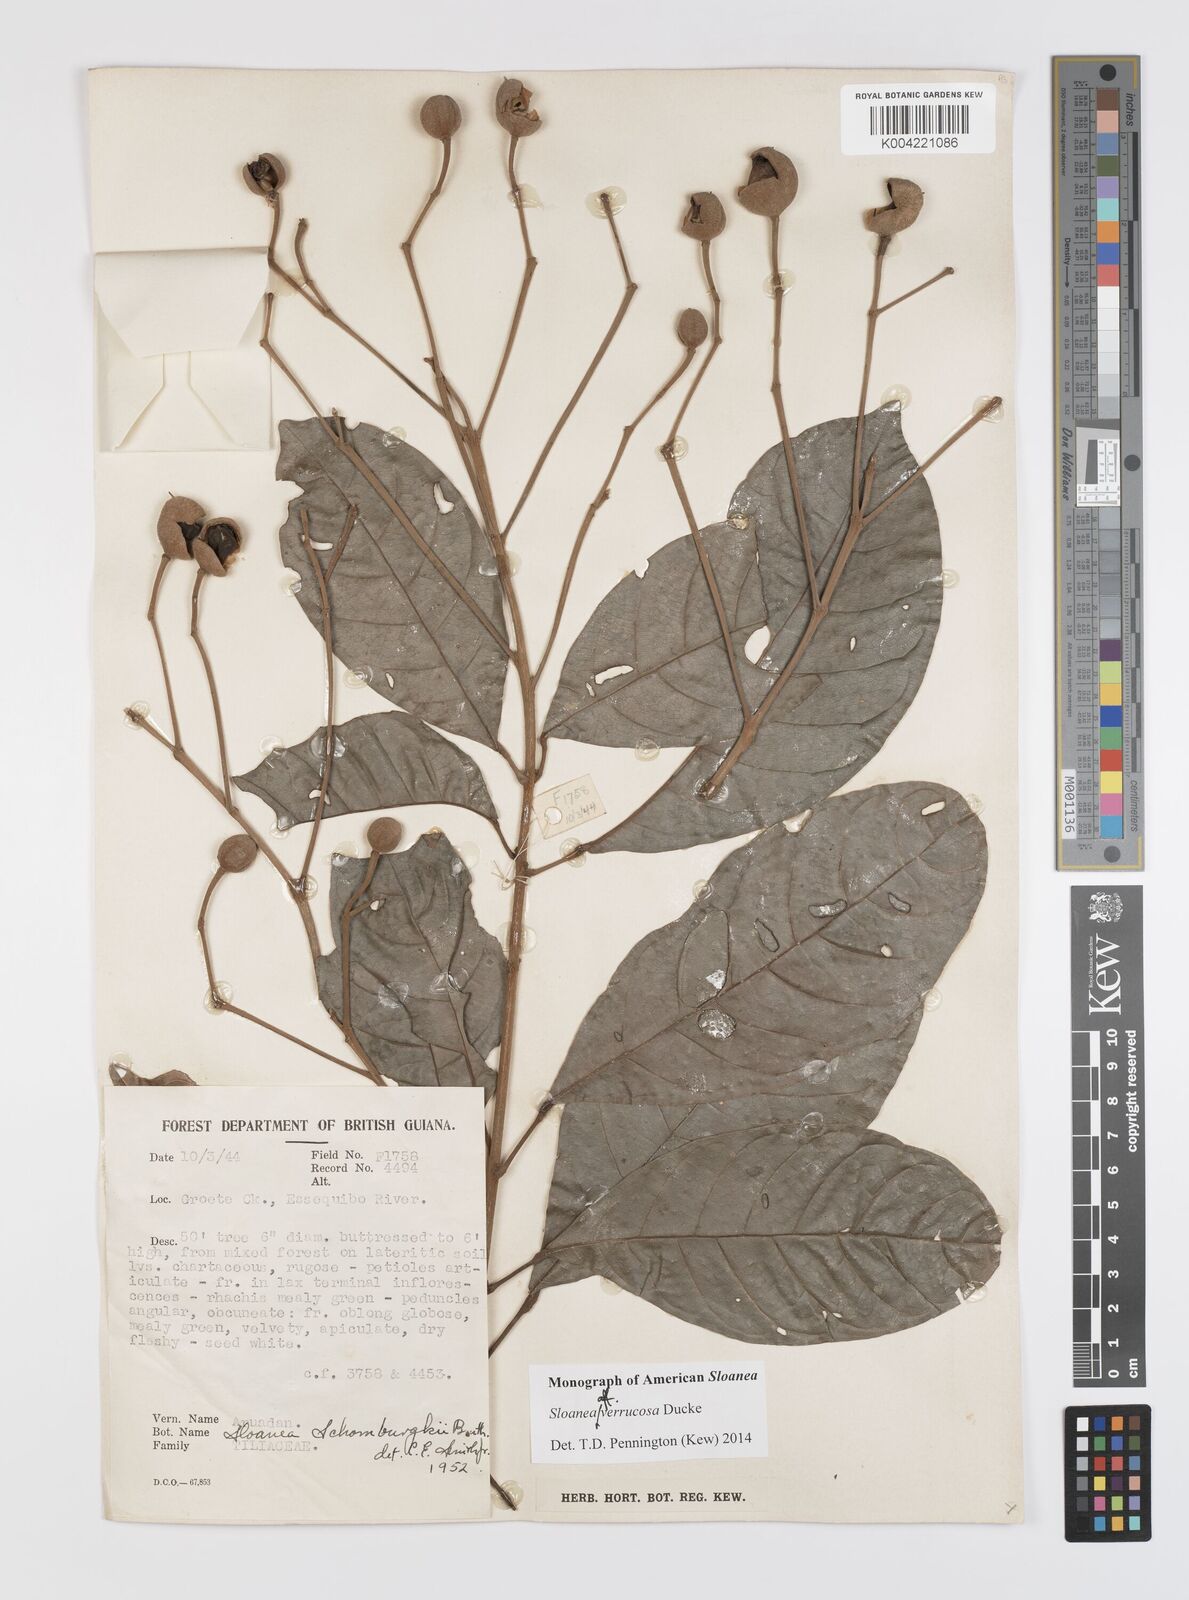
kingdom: Plantae
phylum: Tracheophyta
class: Magnoliopsida
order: Oxalidales
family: Elaeocarpaceae
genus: Sloanea
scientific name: Sloanea schomburgkii
